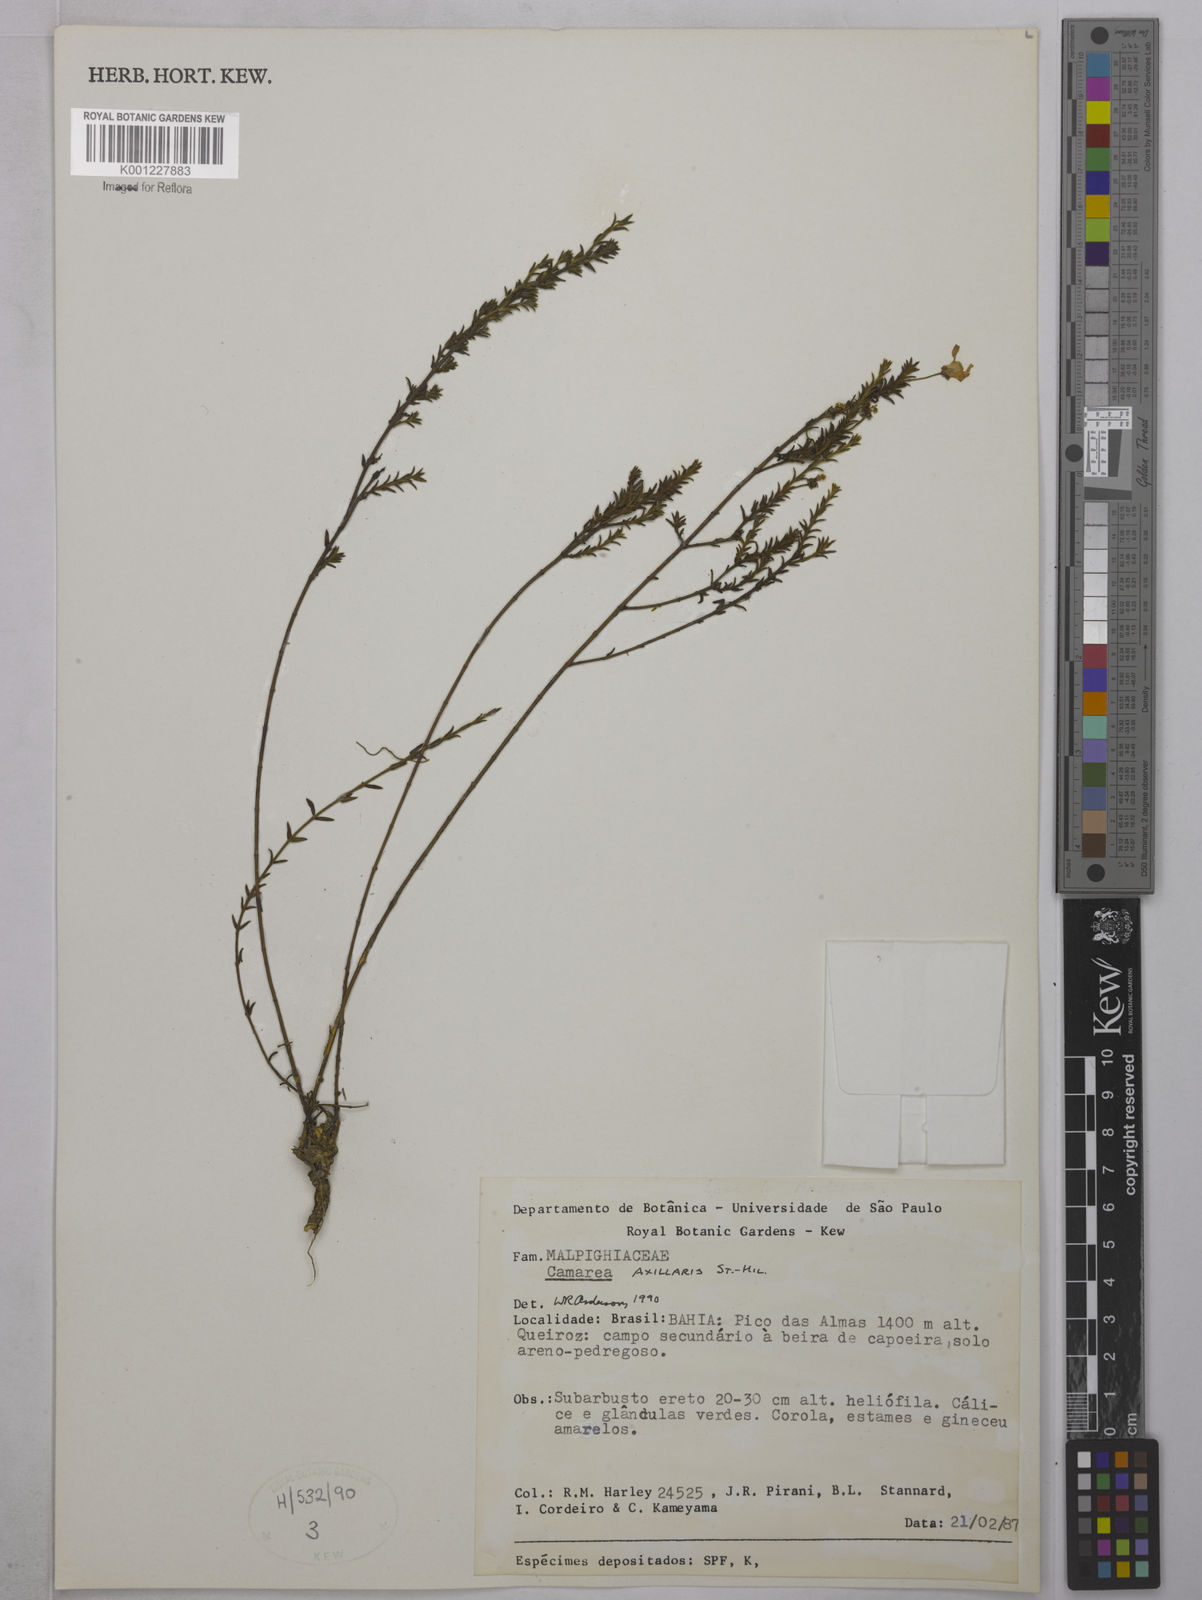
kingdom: Plantae
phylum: Tracheophyta
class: Magnoliopsida
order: Malpighiales
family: Malpighiaceae
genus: Camarea
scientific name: Camarea axillaris
